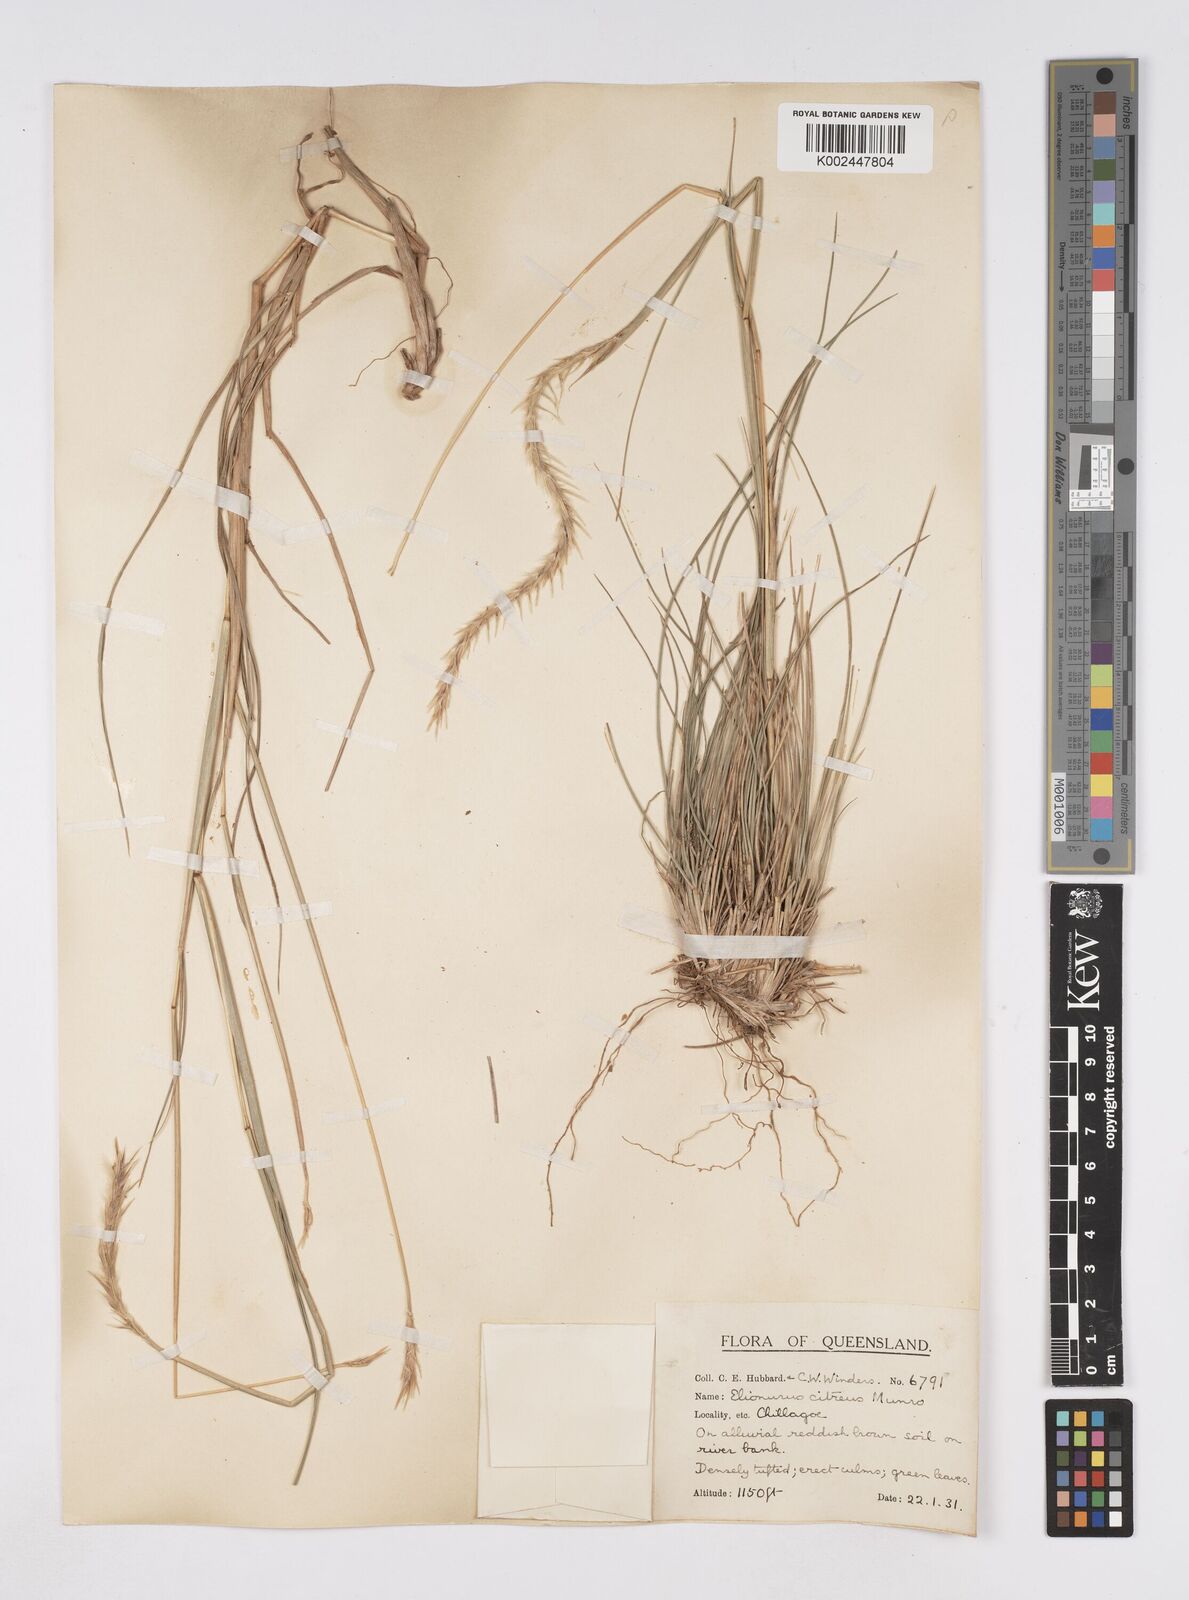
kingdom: Plantae
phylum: Tracheophyta
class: Liliopsida
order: Poales
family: Poaceae
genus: Elionurus
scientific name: Elionurus citreus
